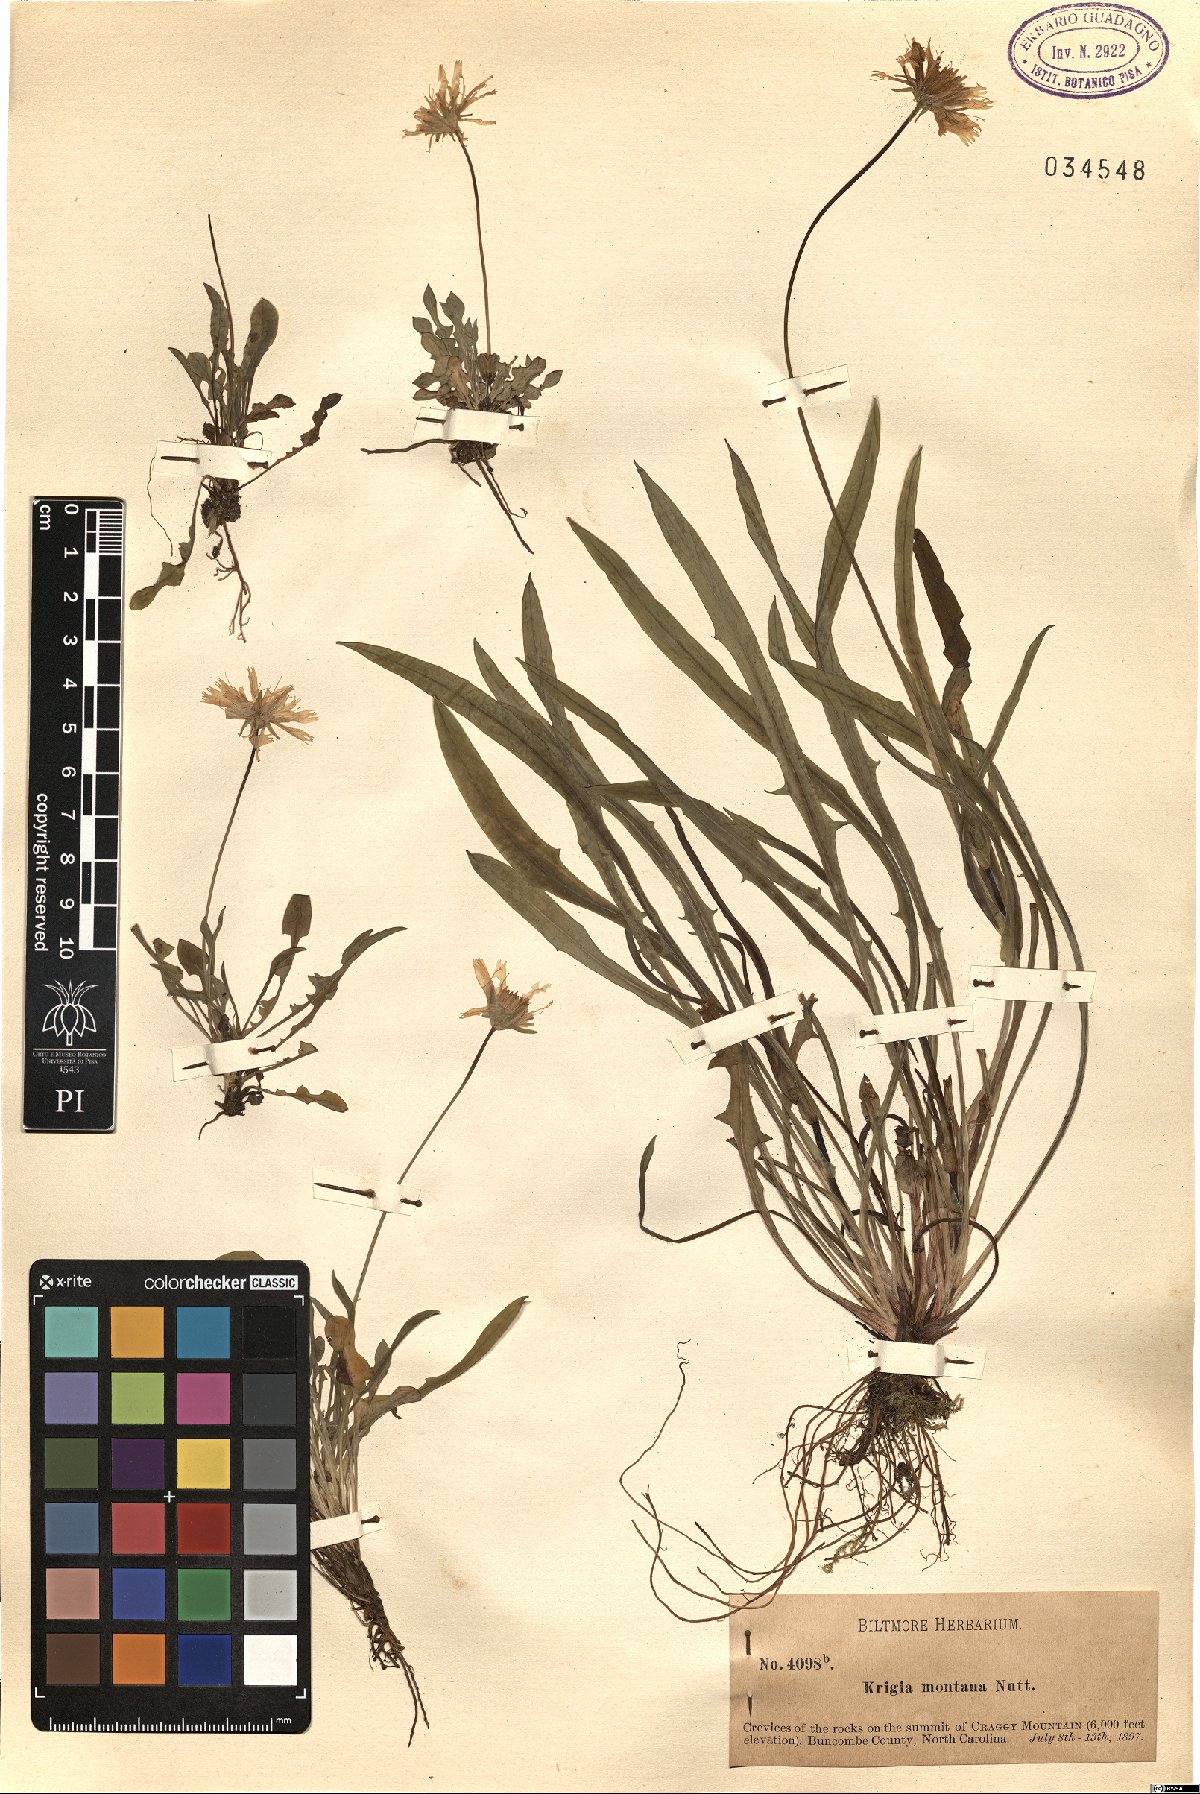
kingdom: Plantae
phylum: Tracheophyta
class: Magnoliopsida
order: Asterales
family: Asteraceae
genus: Krigia
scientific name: Krigia montana
